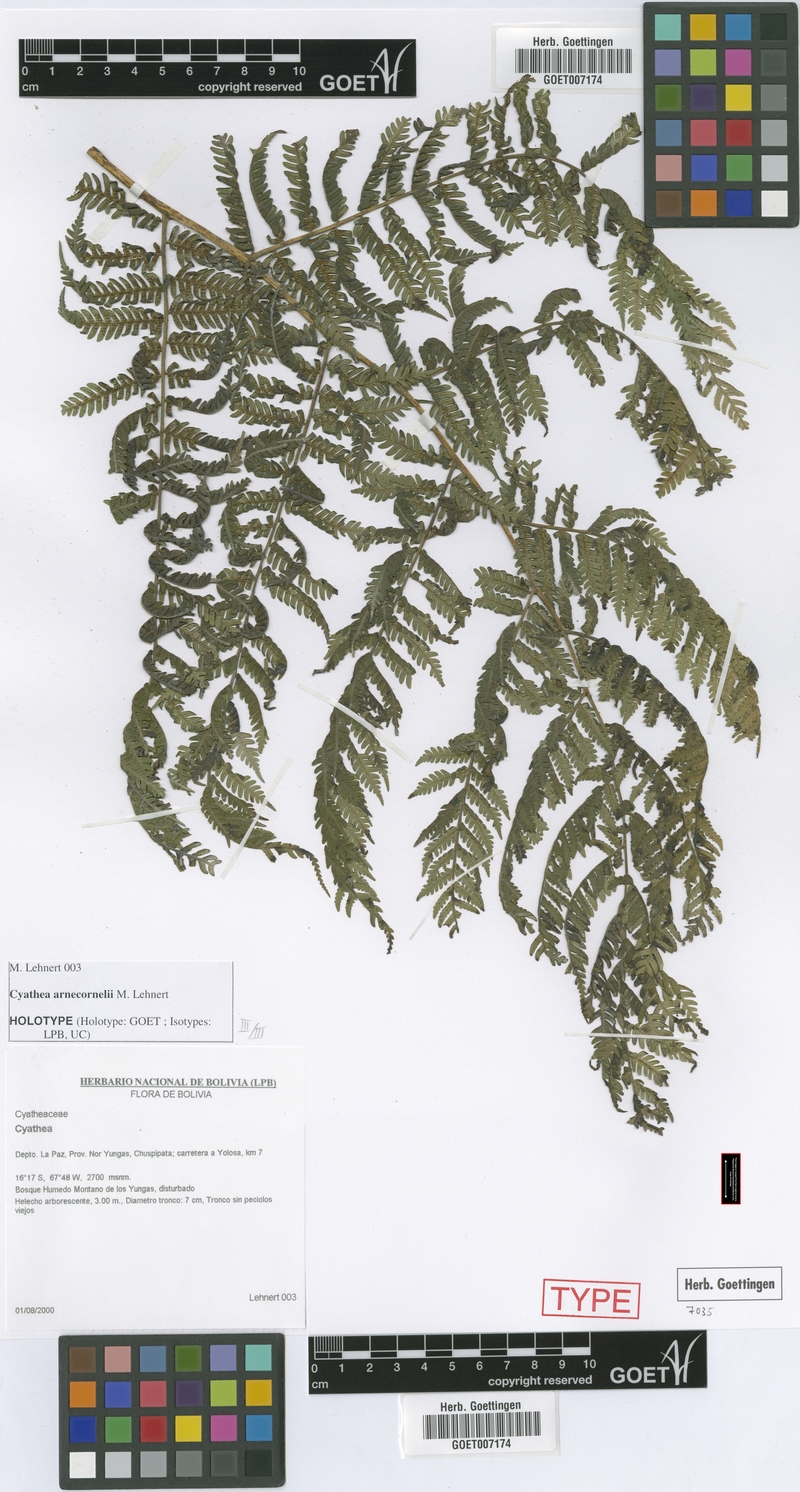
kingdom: Plantae
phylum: Tracheophyta
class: Polypodiopsida
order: Cyatheales
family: Cyatheaceae
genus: Cyathea
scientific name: Cyathea arnecornelii
